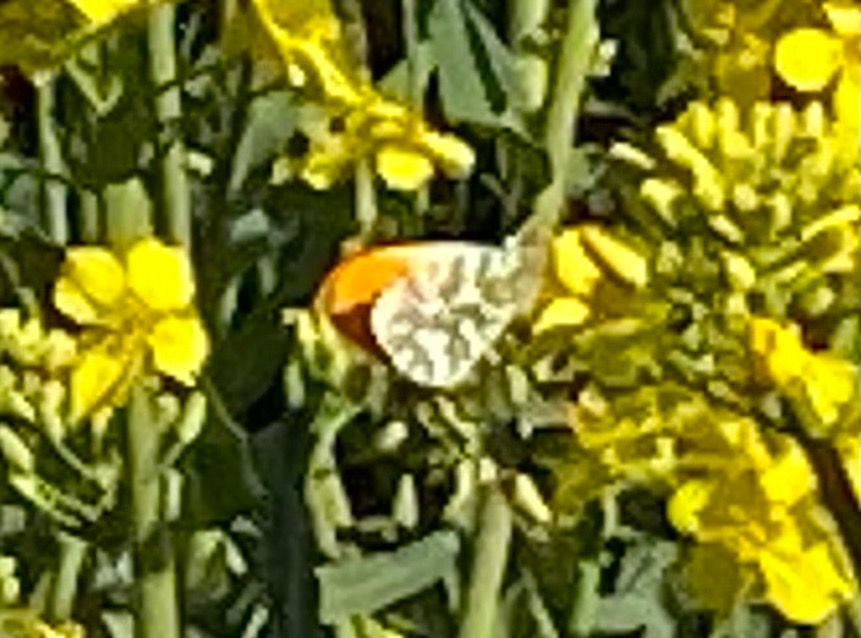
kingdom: Animalia
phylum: Arthropoda
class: Insecta
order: Lepidoptera
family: Pieridae
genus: Anthocharis
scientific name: Anthocharis cardamines
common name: Aurora
